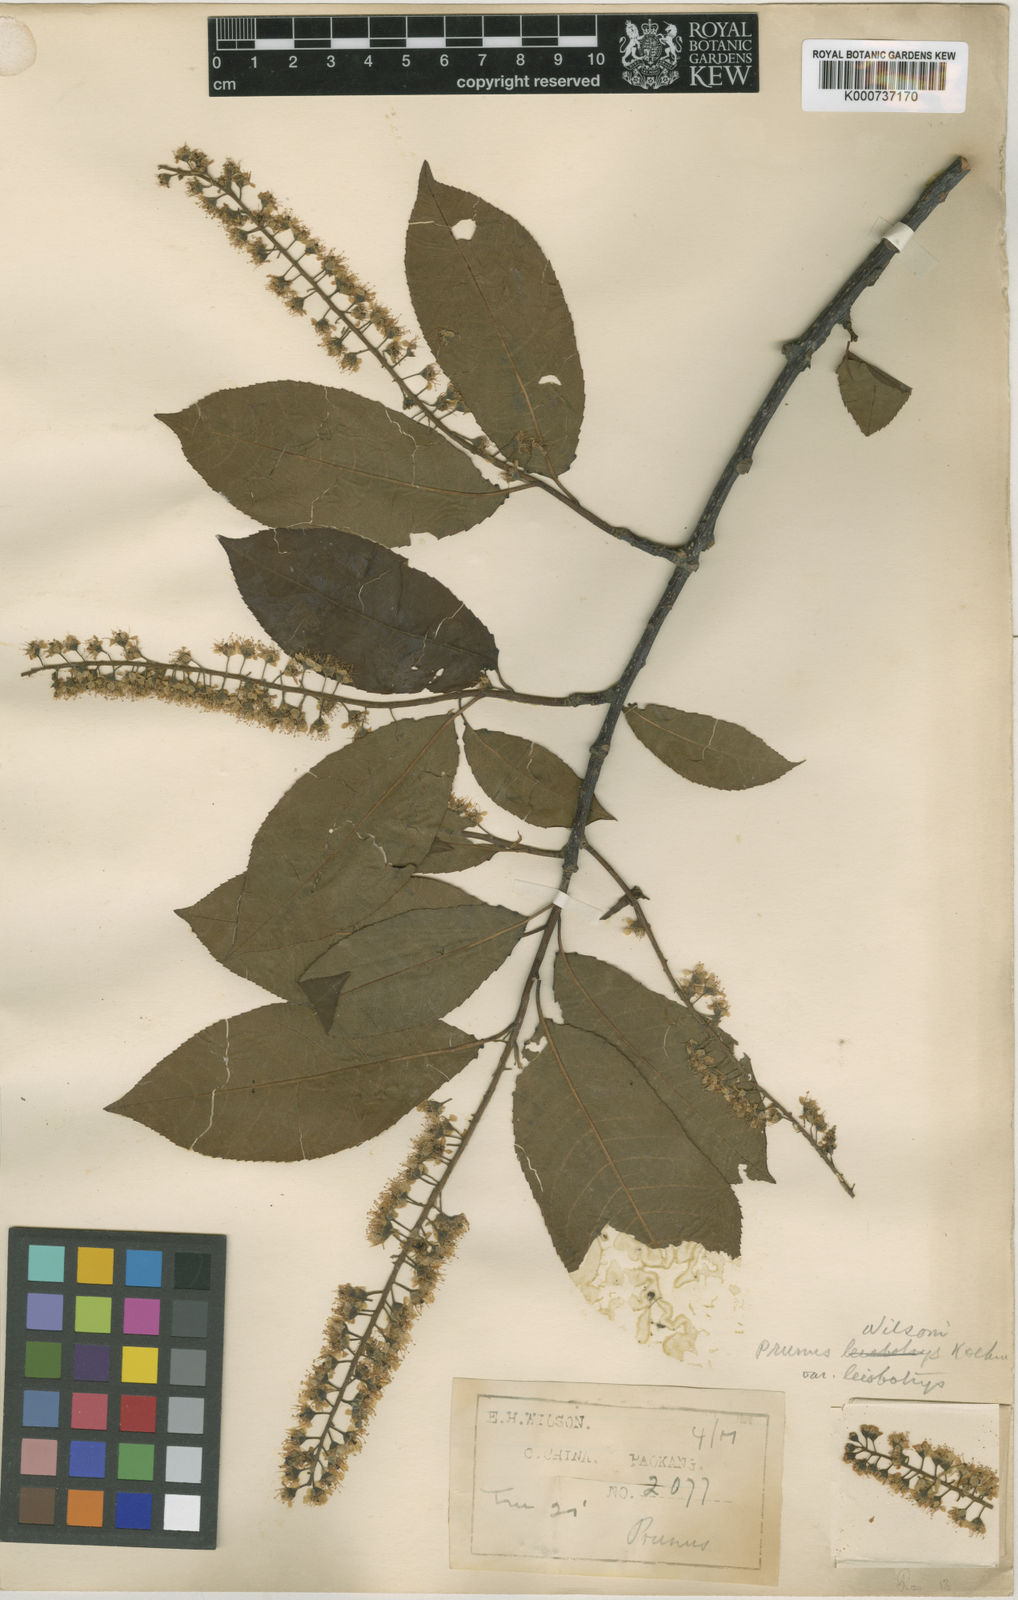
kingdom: Plantae
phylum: Tracheophyta
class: Magnoliopsida
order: Rosales
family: Rosaceae
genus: Prunus
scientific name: Prunus wilsonii
